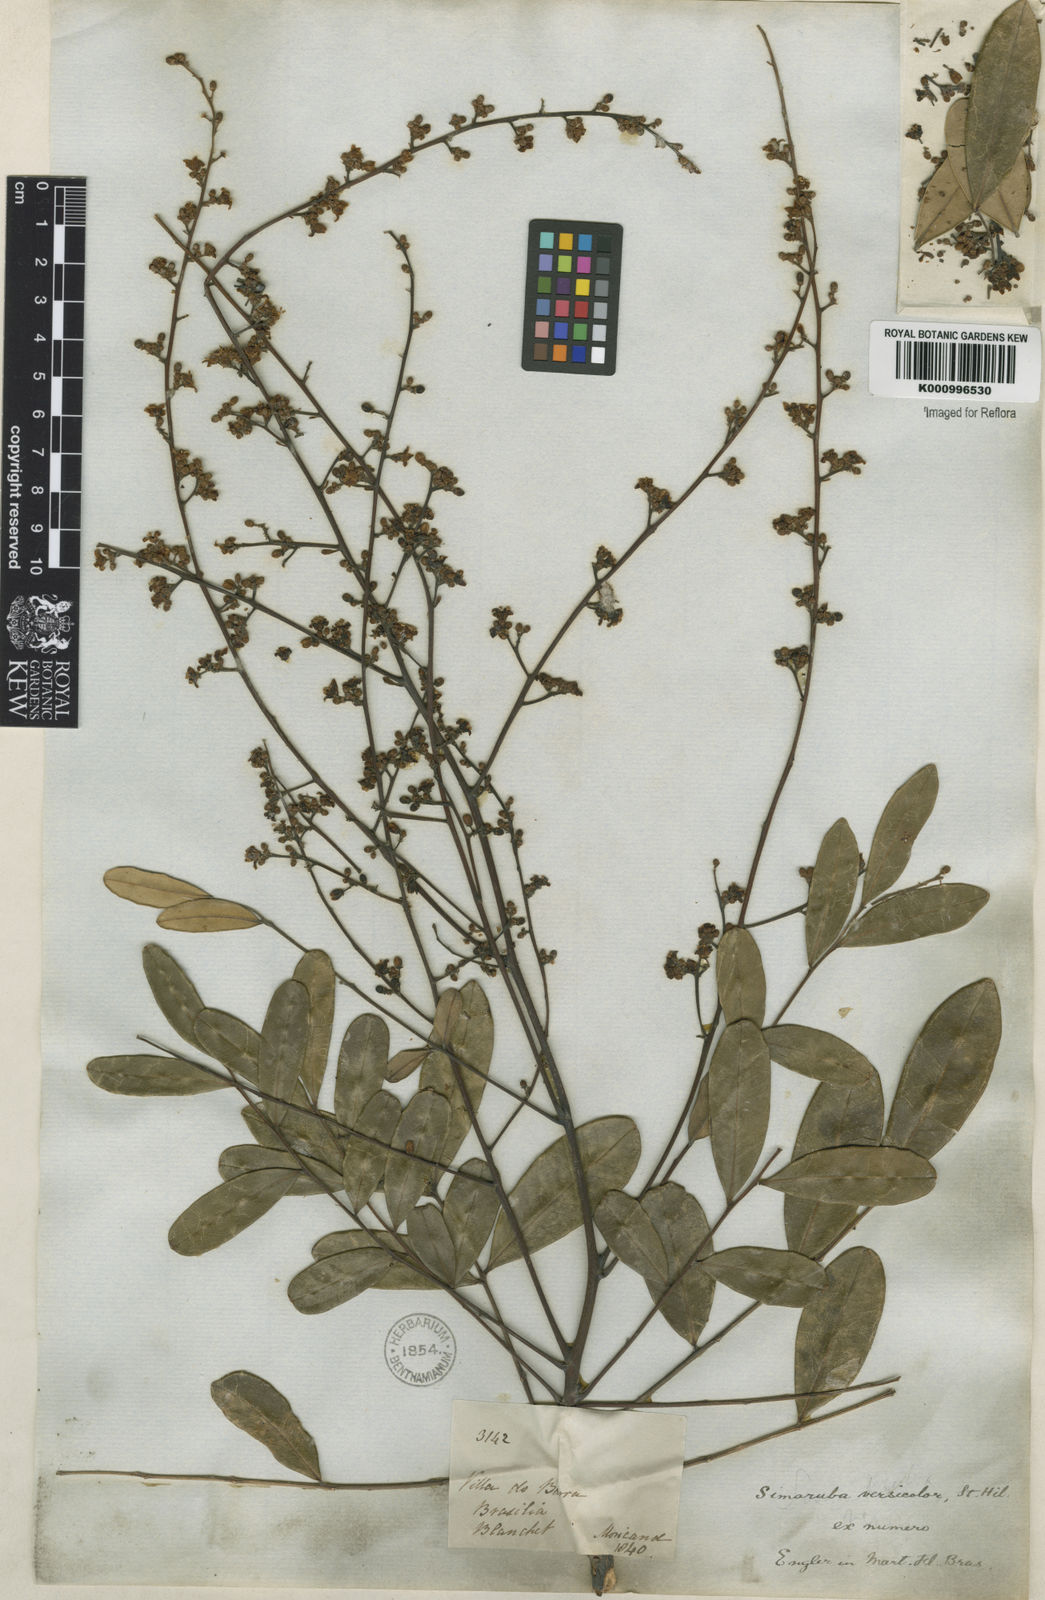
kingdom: Plantae
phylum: Tracheophyta
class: Magnoliopsida
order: Sapindales
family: Simaroubaceae
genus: Simarouba
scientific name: Simarouba versicolor
